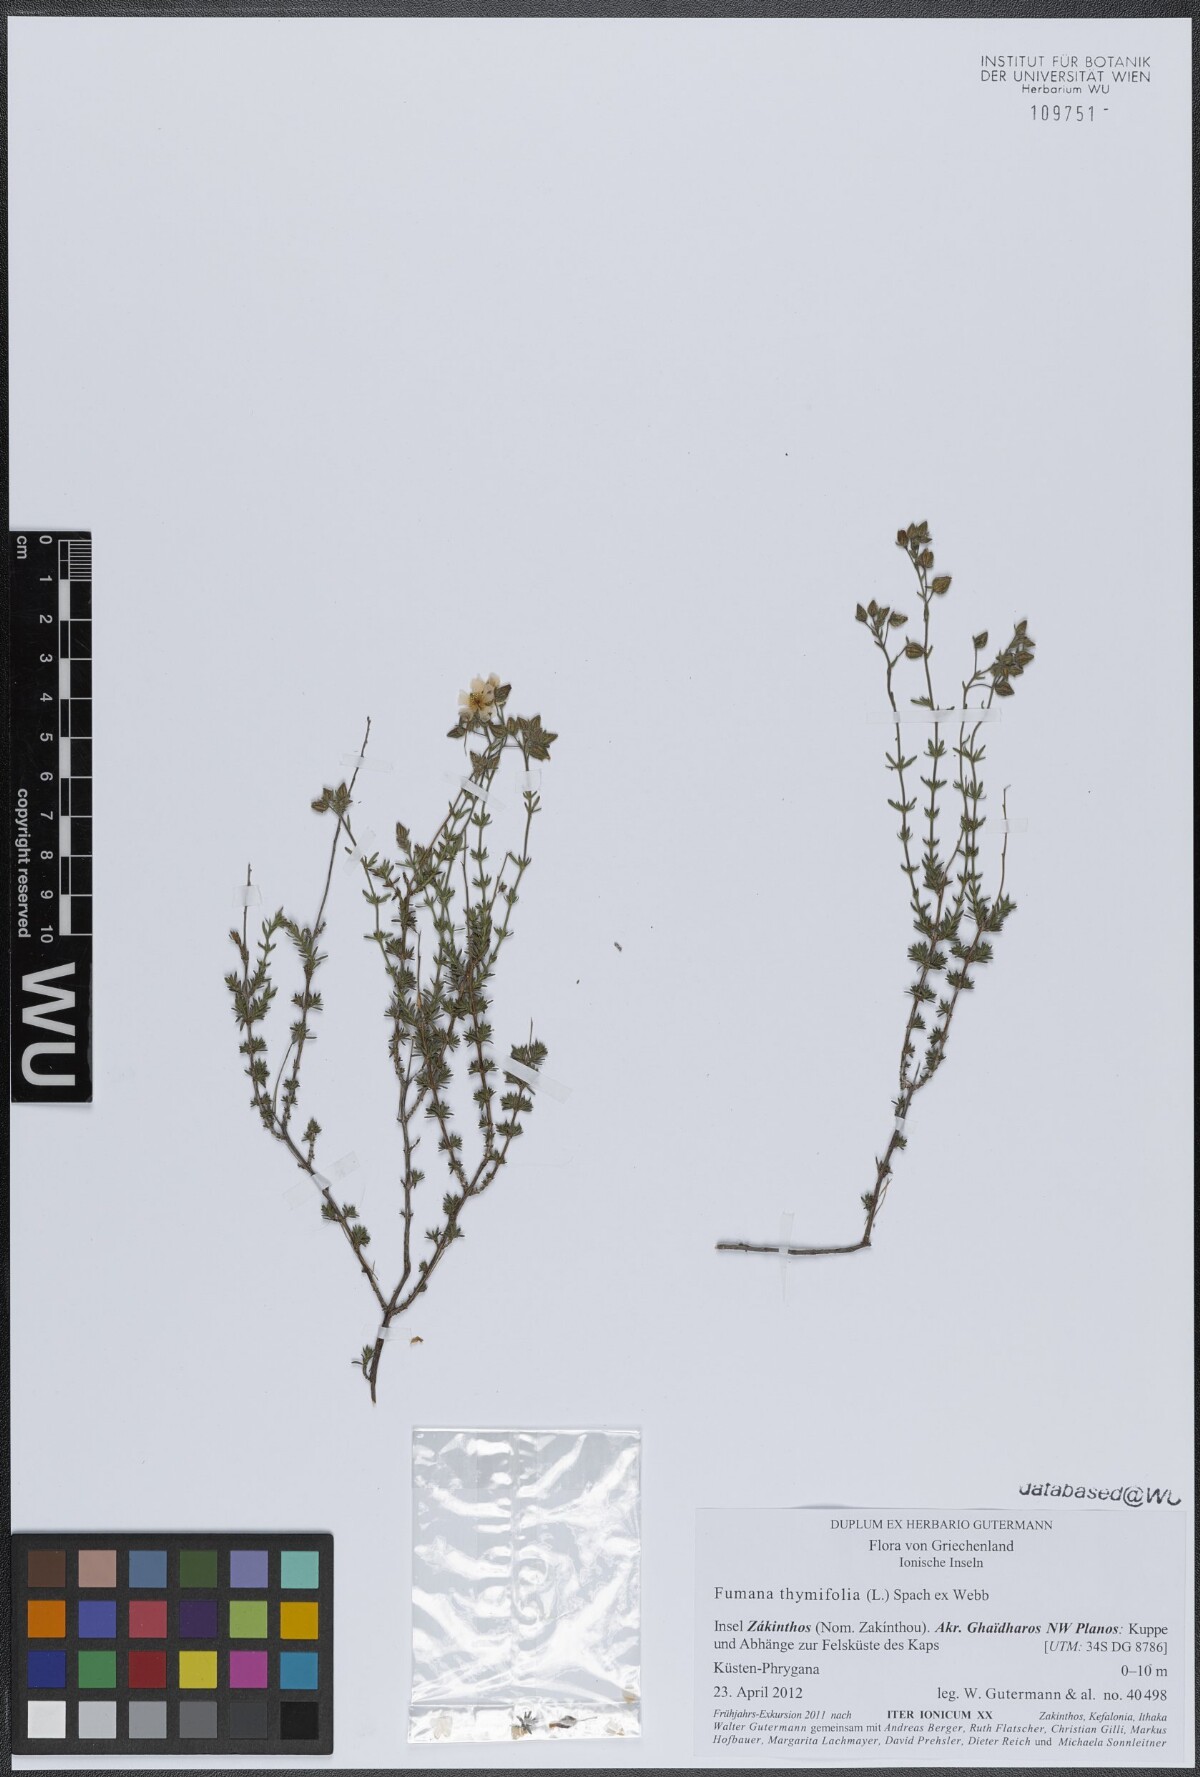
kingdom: Plantae
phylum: Tracheophyta
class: Magnoliopsida
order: Malvales
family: Cistaceae
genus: Fumana
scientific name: Fumana thymifolia
